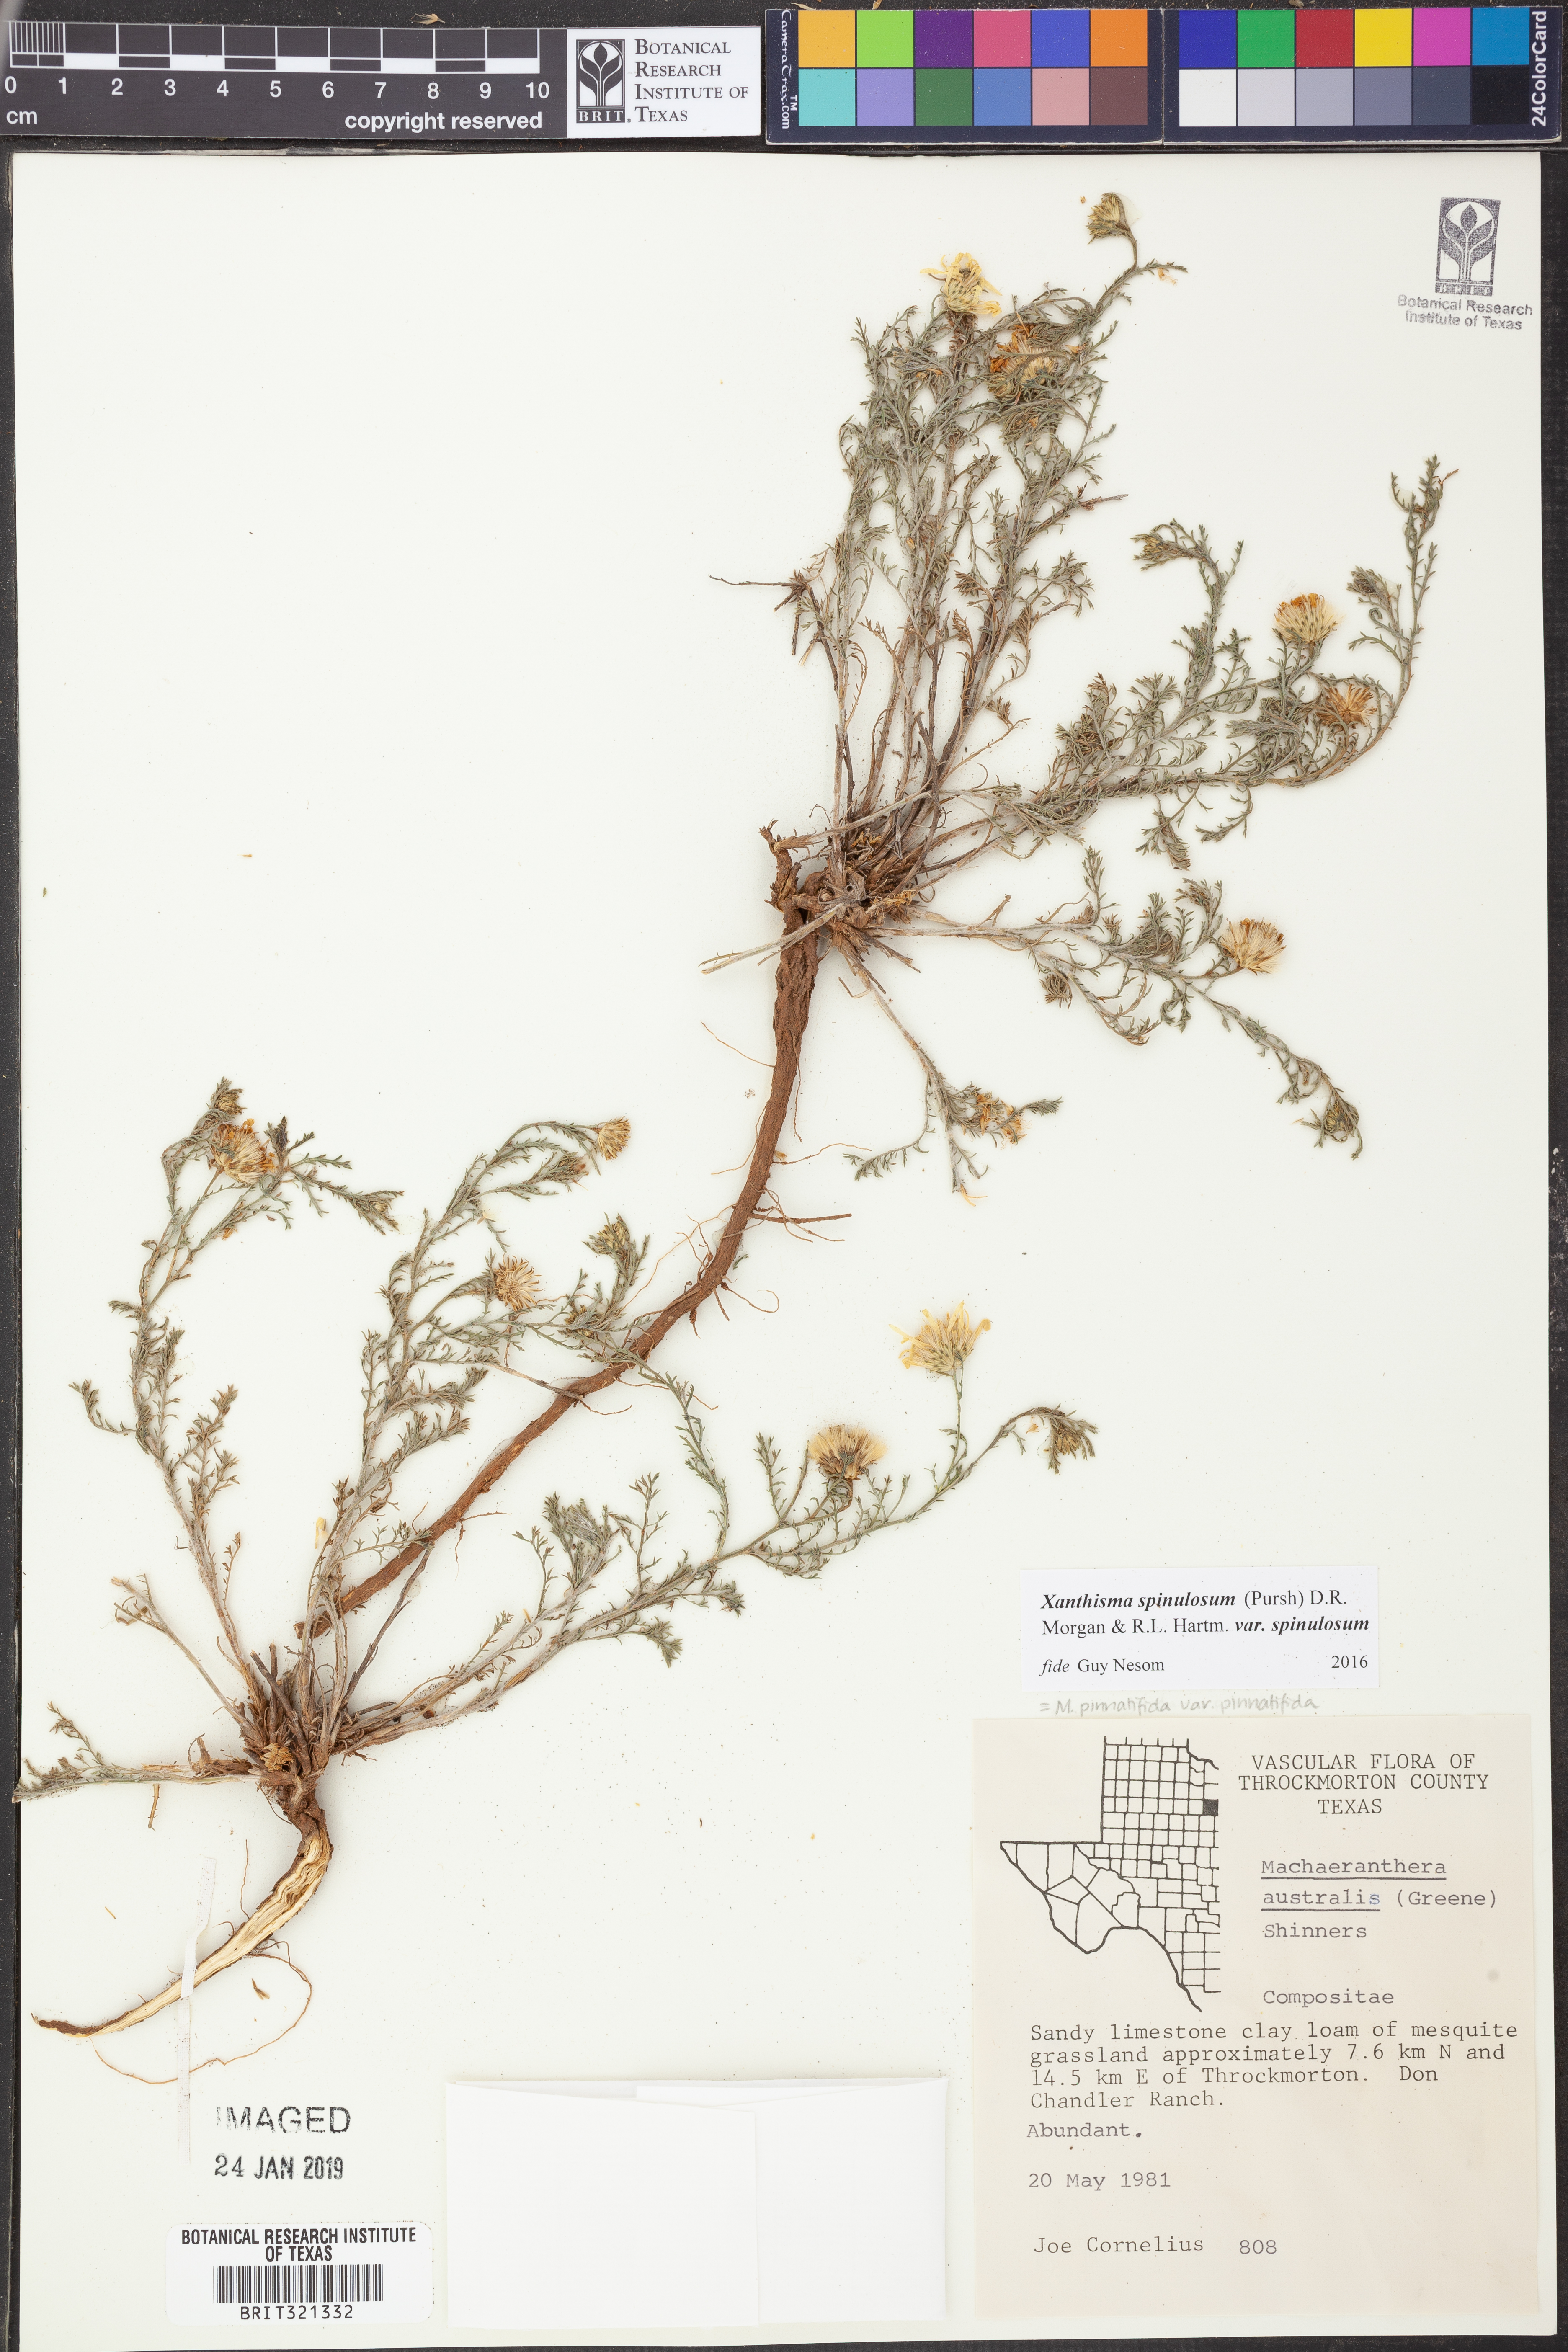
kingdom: Plantae
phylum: Tracheophyta
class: Magnoliopsida
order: Asterales
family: Asteraceae
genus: Xanthisma
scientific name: Xanthisma spinulosum
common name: Spiny goldenweed
